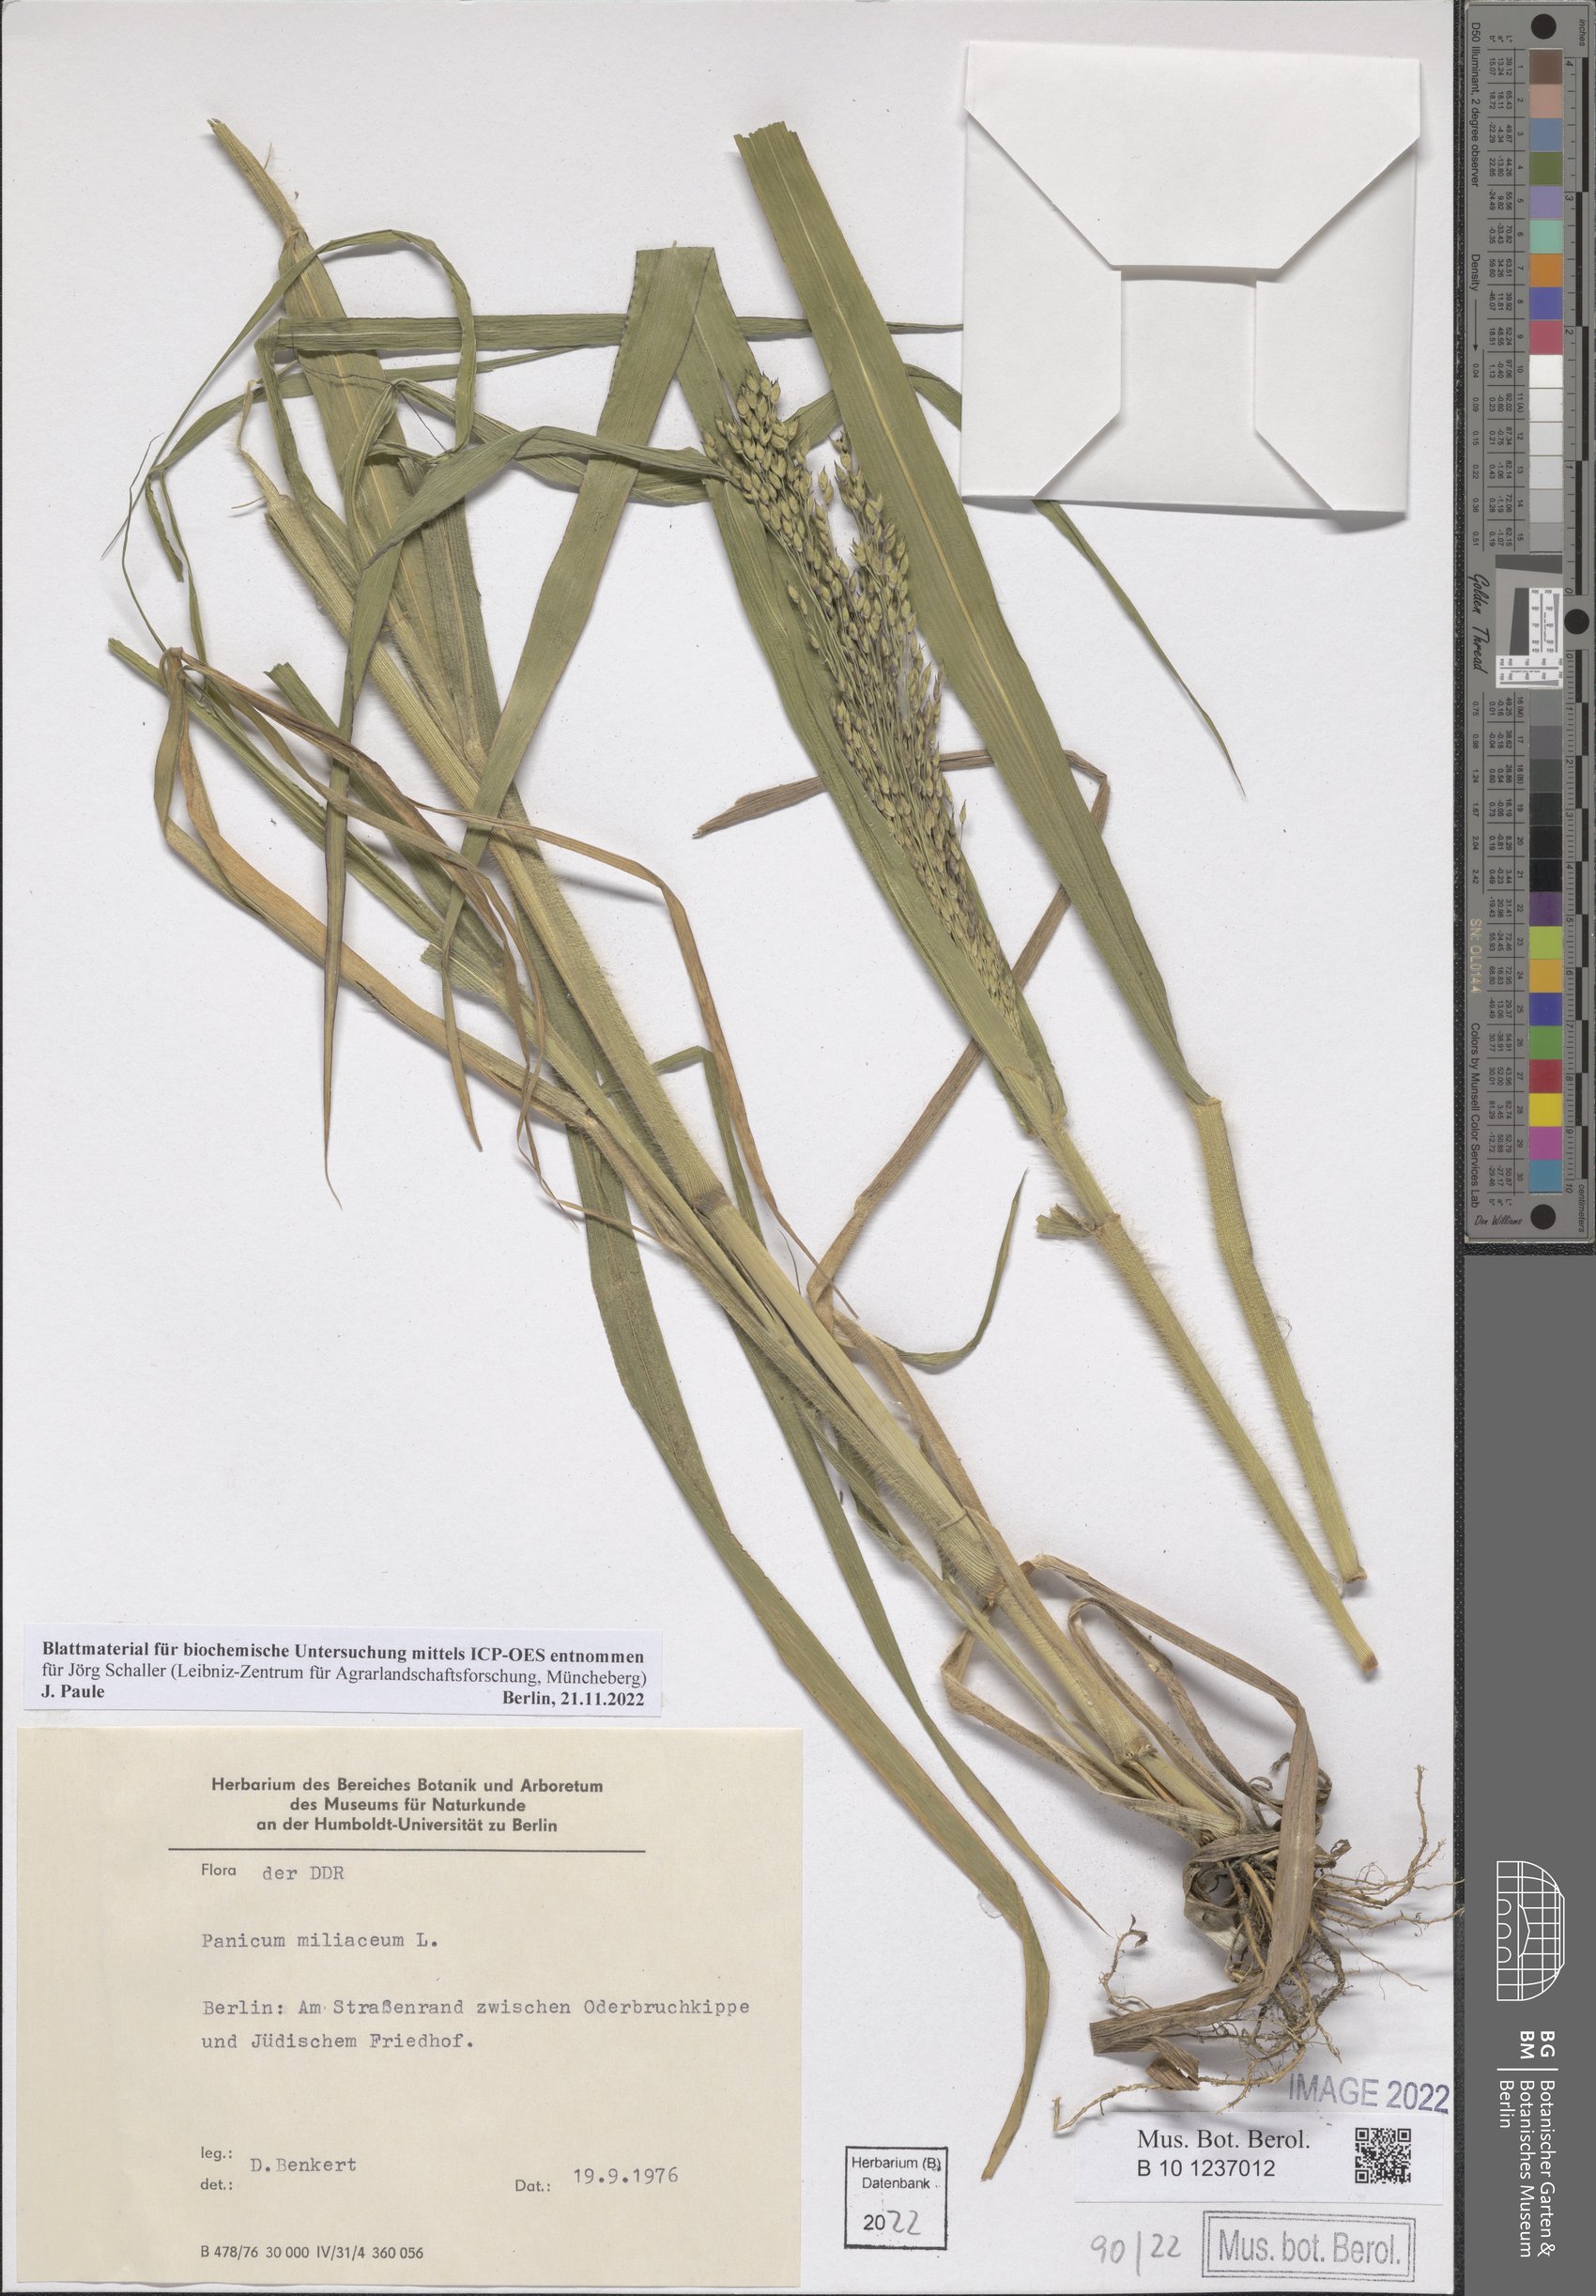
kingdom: Plantae
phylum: Tracheophyta
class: Liliopsida
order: Poales
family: Poaceae
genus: Panicum
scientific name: Panicum miliaceum
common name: Common millet
